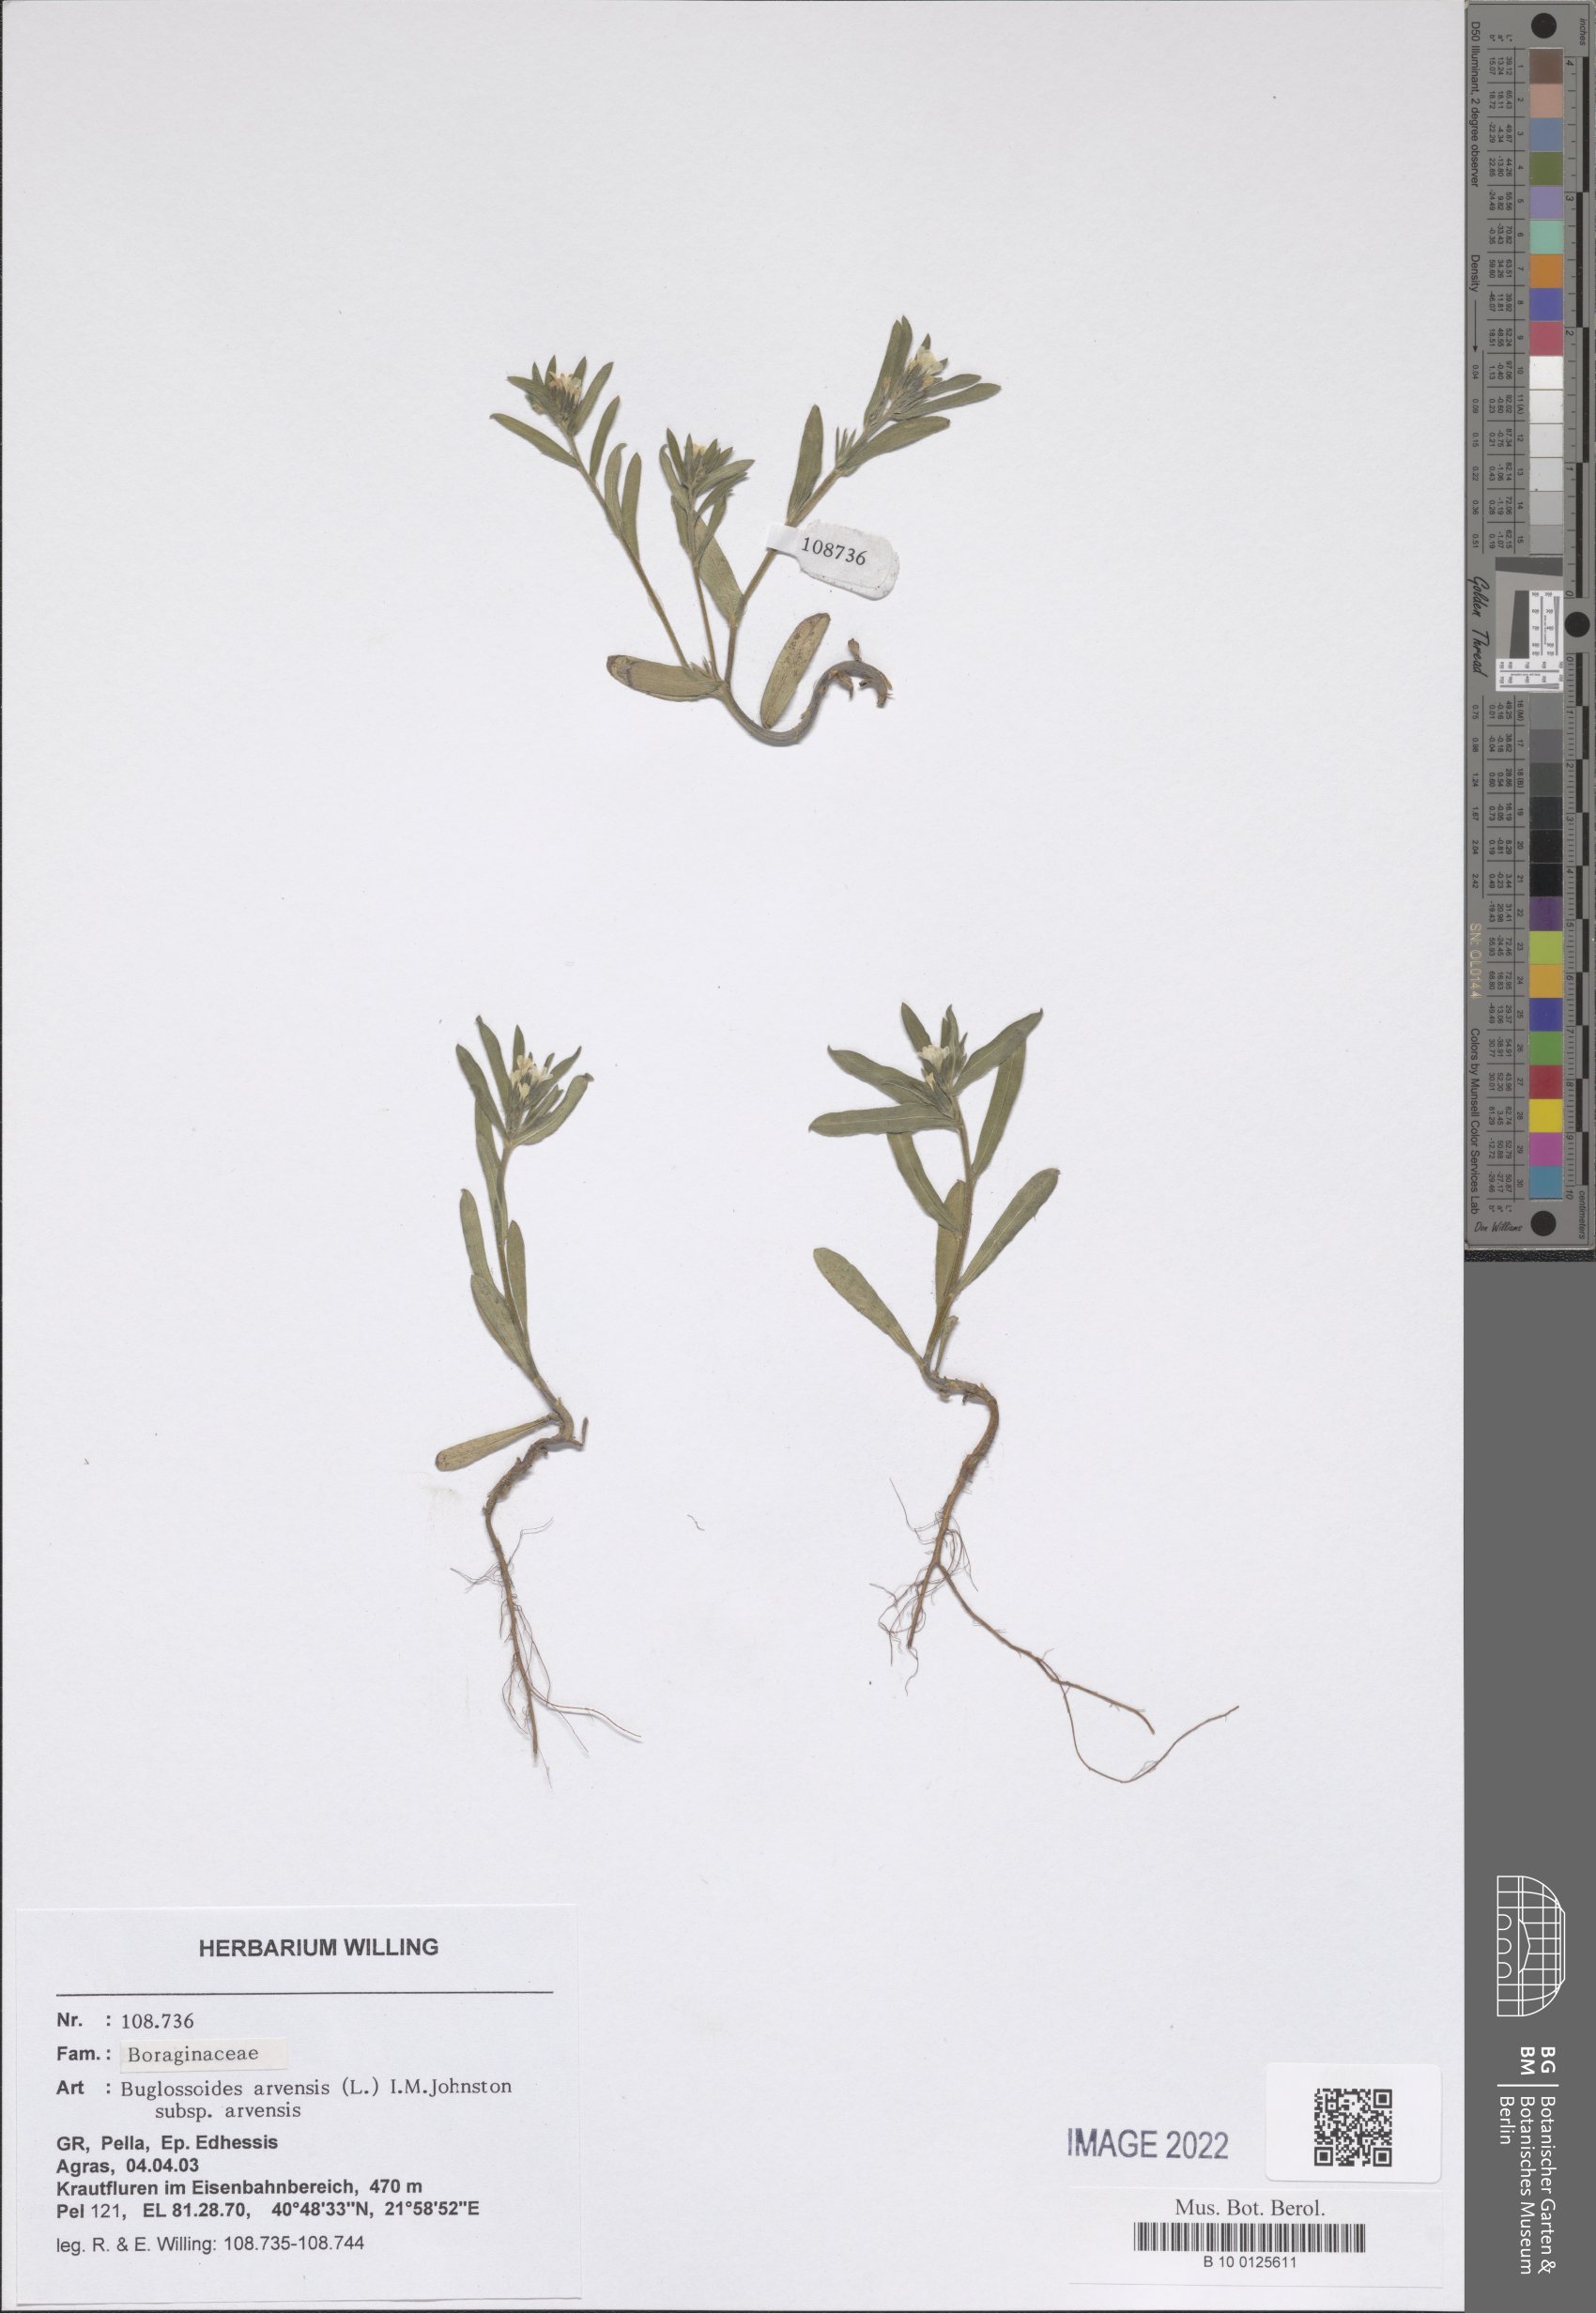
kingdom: Plantae
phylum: Tracheophyta
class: Magnoliopsida
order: Boraginales
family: Boraginaceae
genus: Buglossoides
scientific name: Buglossoides arvensis
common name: Corn gromwell
